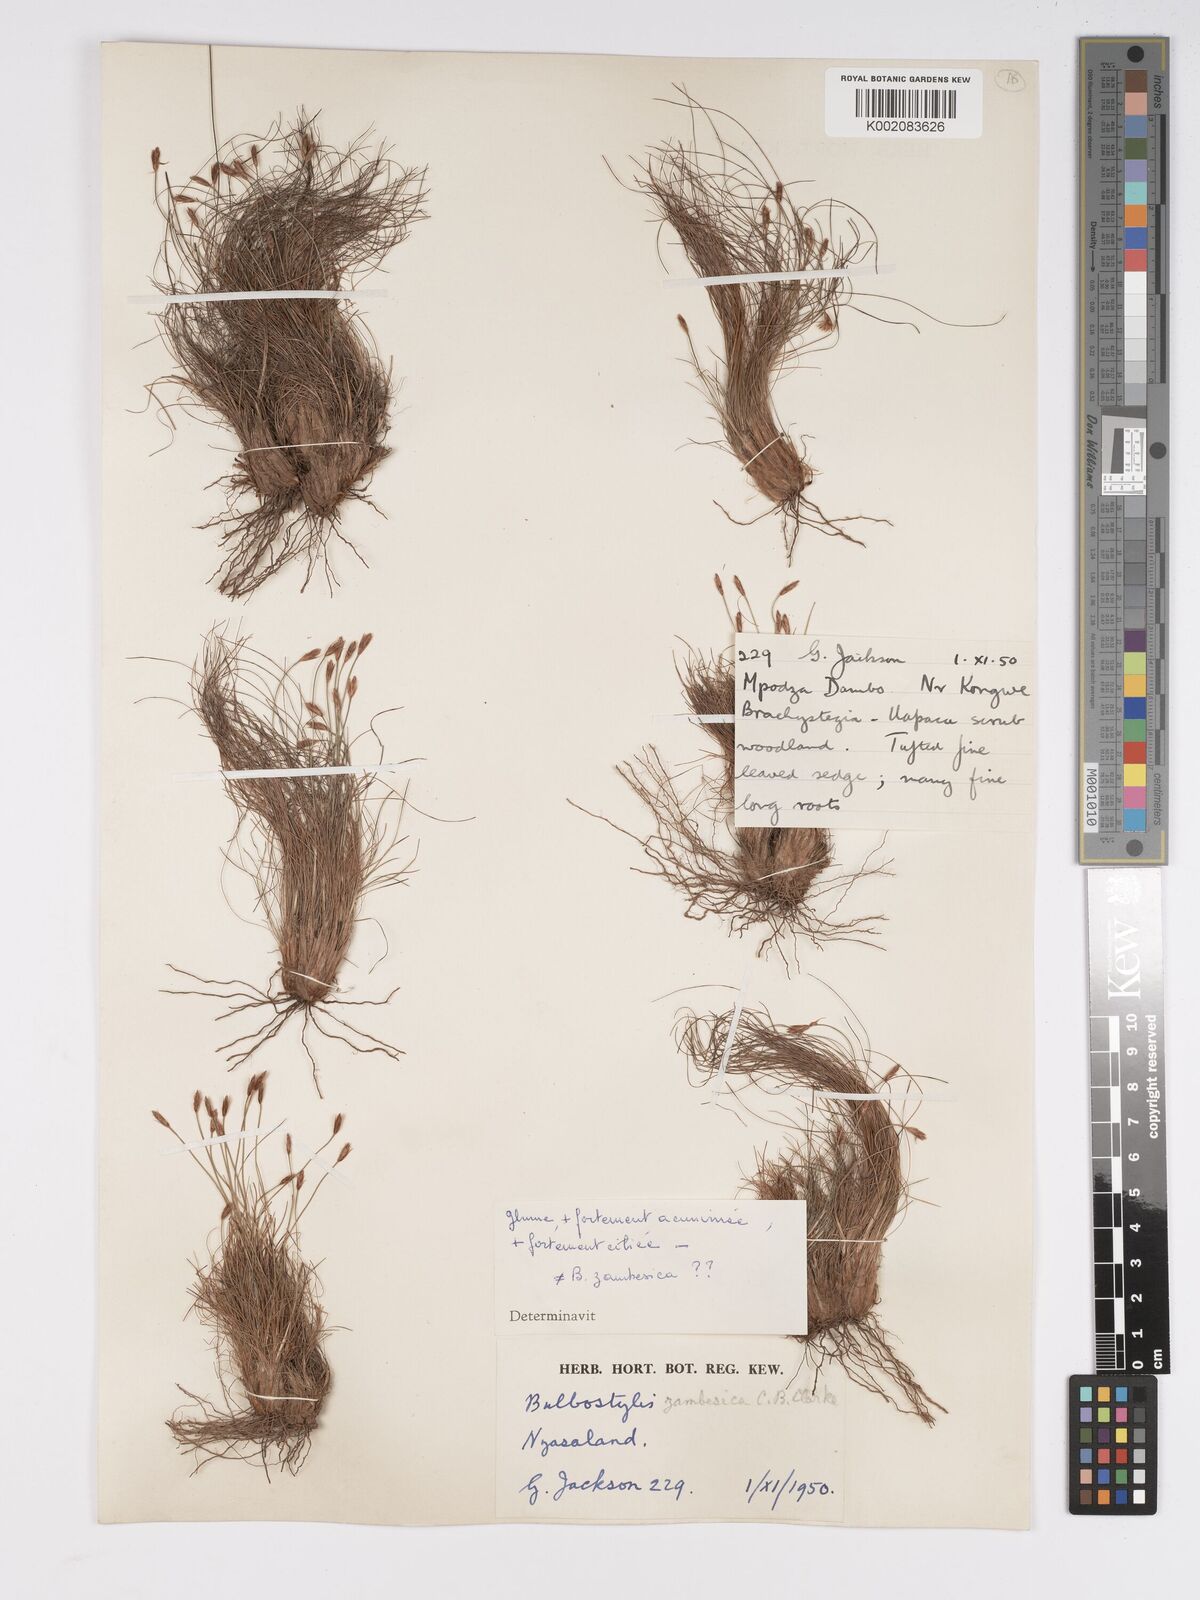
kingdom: Plantae
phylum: Tracheophyta
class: Liliopsida
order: Poales
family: Cyperaceae
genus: Bulbostylis
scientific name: Bulbostylis macra
